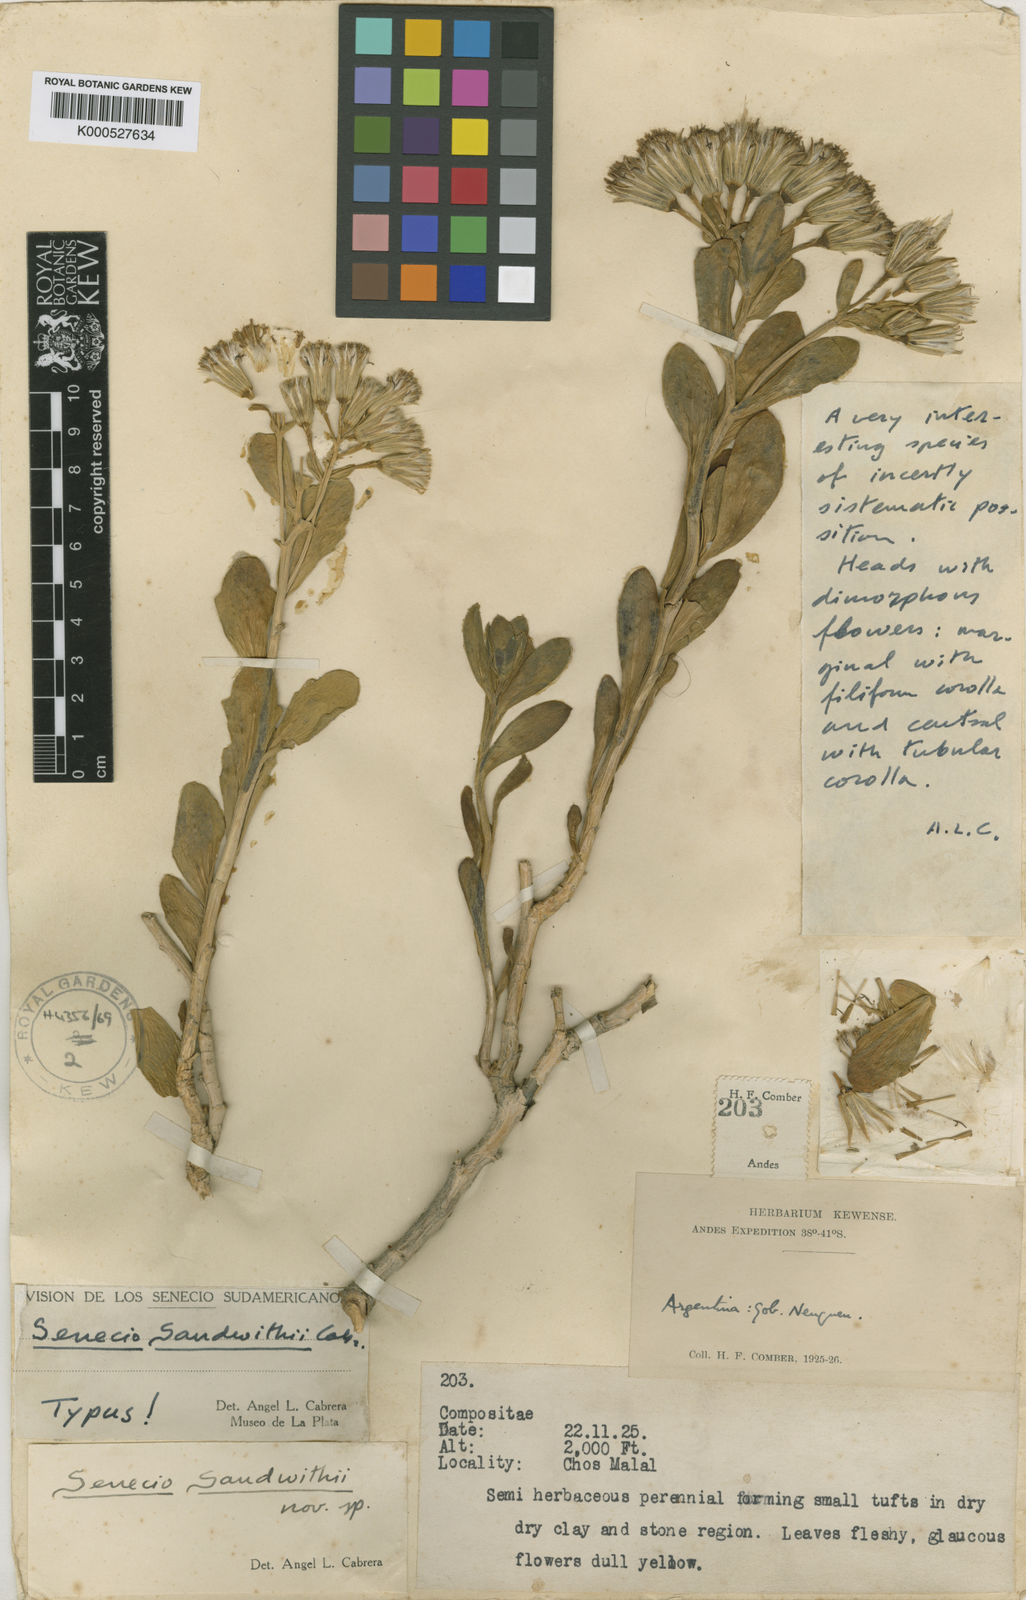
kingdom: Plantae
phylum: Tracheophyta
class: Magnoliopsida
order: Asterales
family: Asteraceae
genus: Senecio
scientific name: Senecio sandwithii
